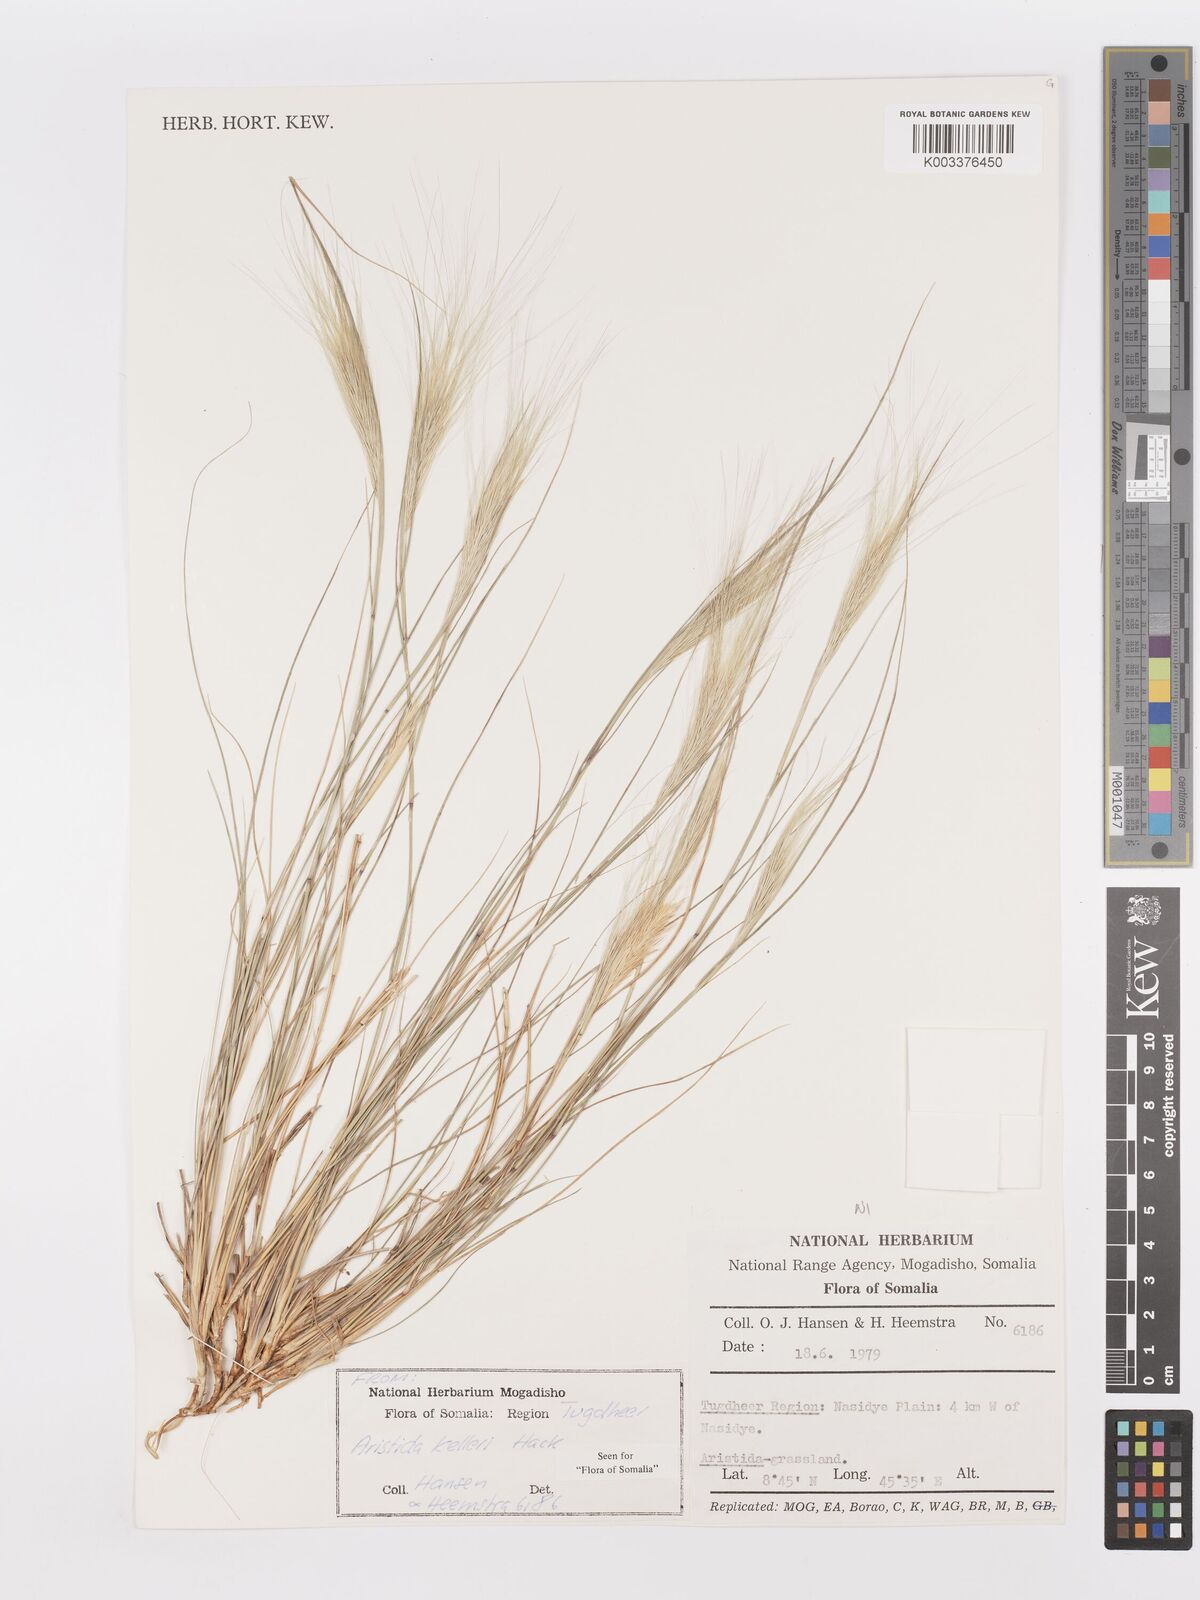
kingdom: Plantae
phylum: Tracheophyta
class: Liliopsida
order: Poales
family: Poaceae
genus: Aristida
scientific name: Aristida kelleri
